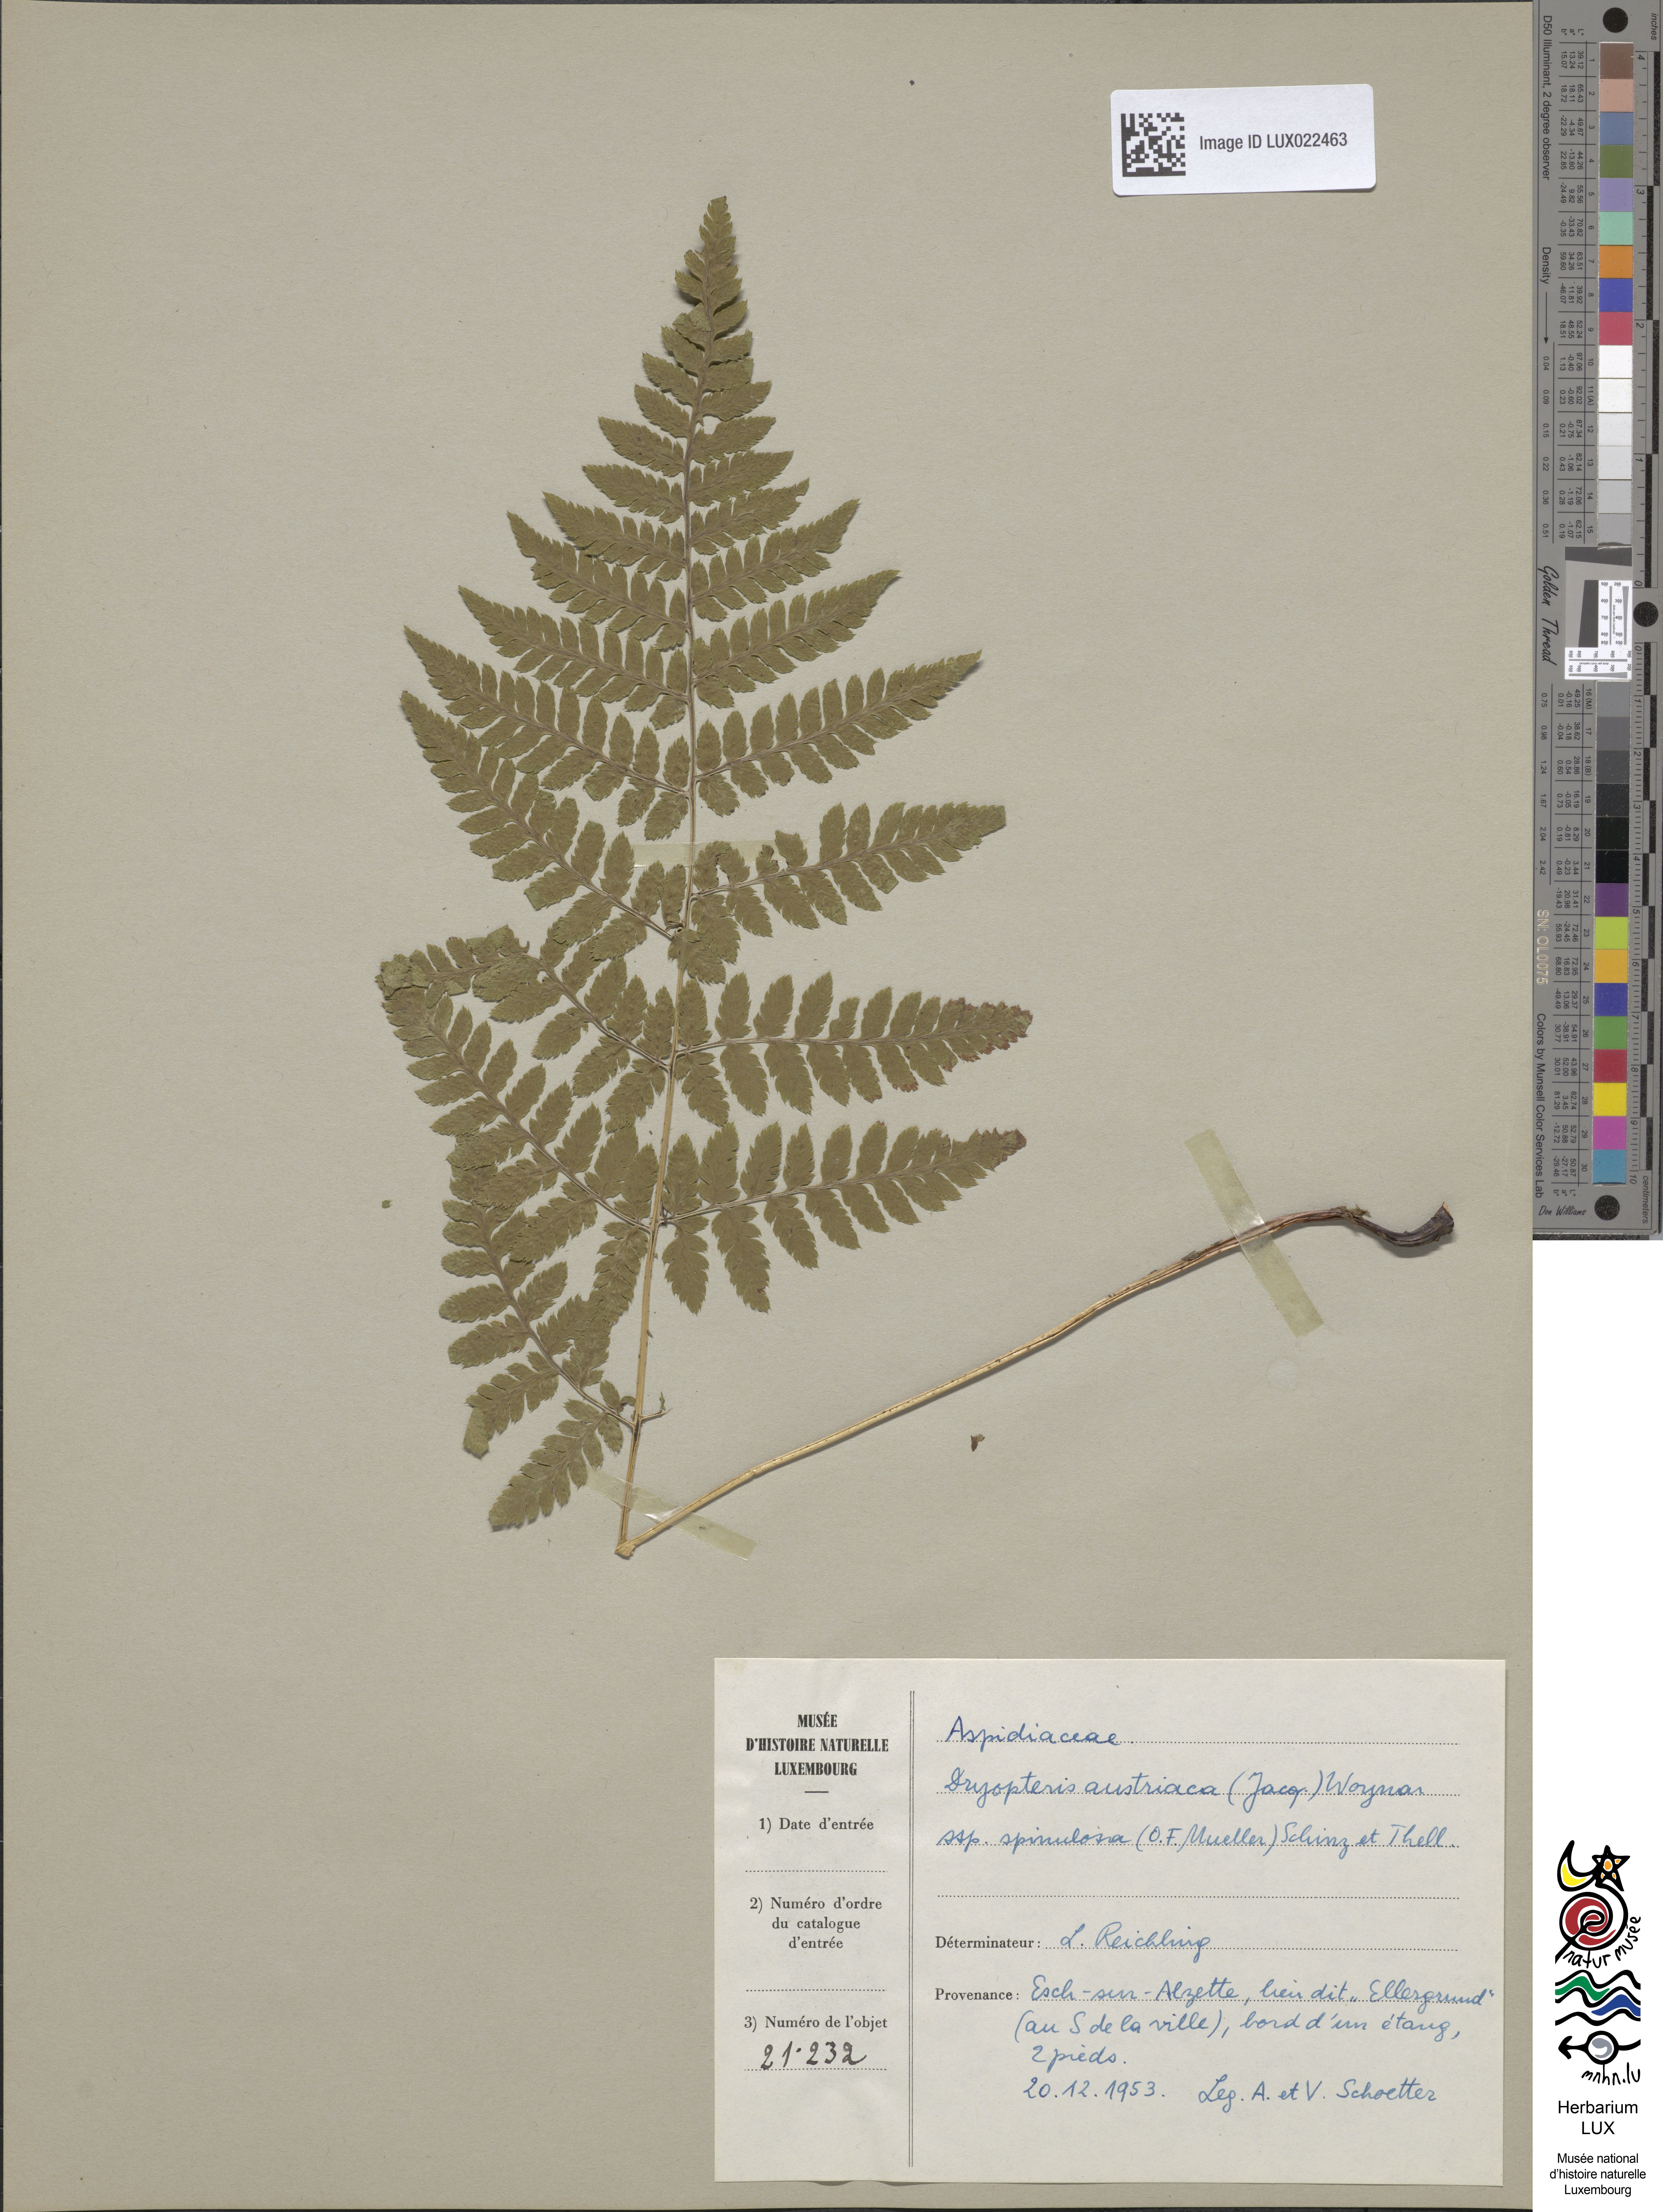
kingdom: Plantae
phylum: Tracheophyta
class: Polypodiopsida
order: Polypodiales
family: Dryopteridaceae
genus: Dryopteris
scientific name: Dryopteris carthusiana
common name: Narrow buckler-fern
